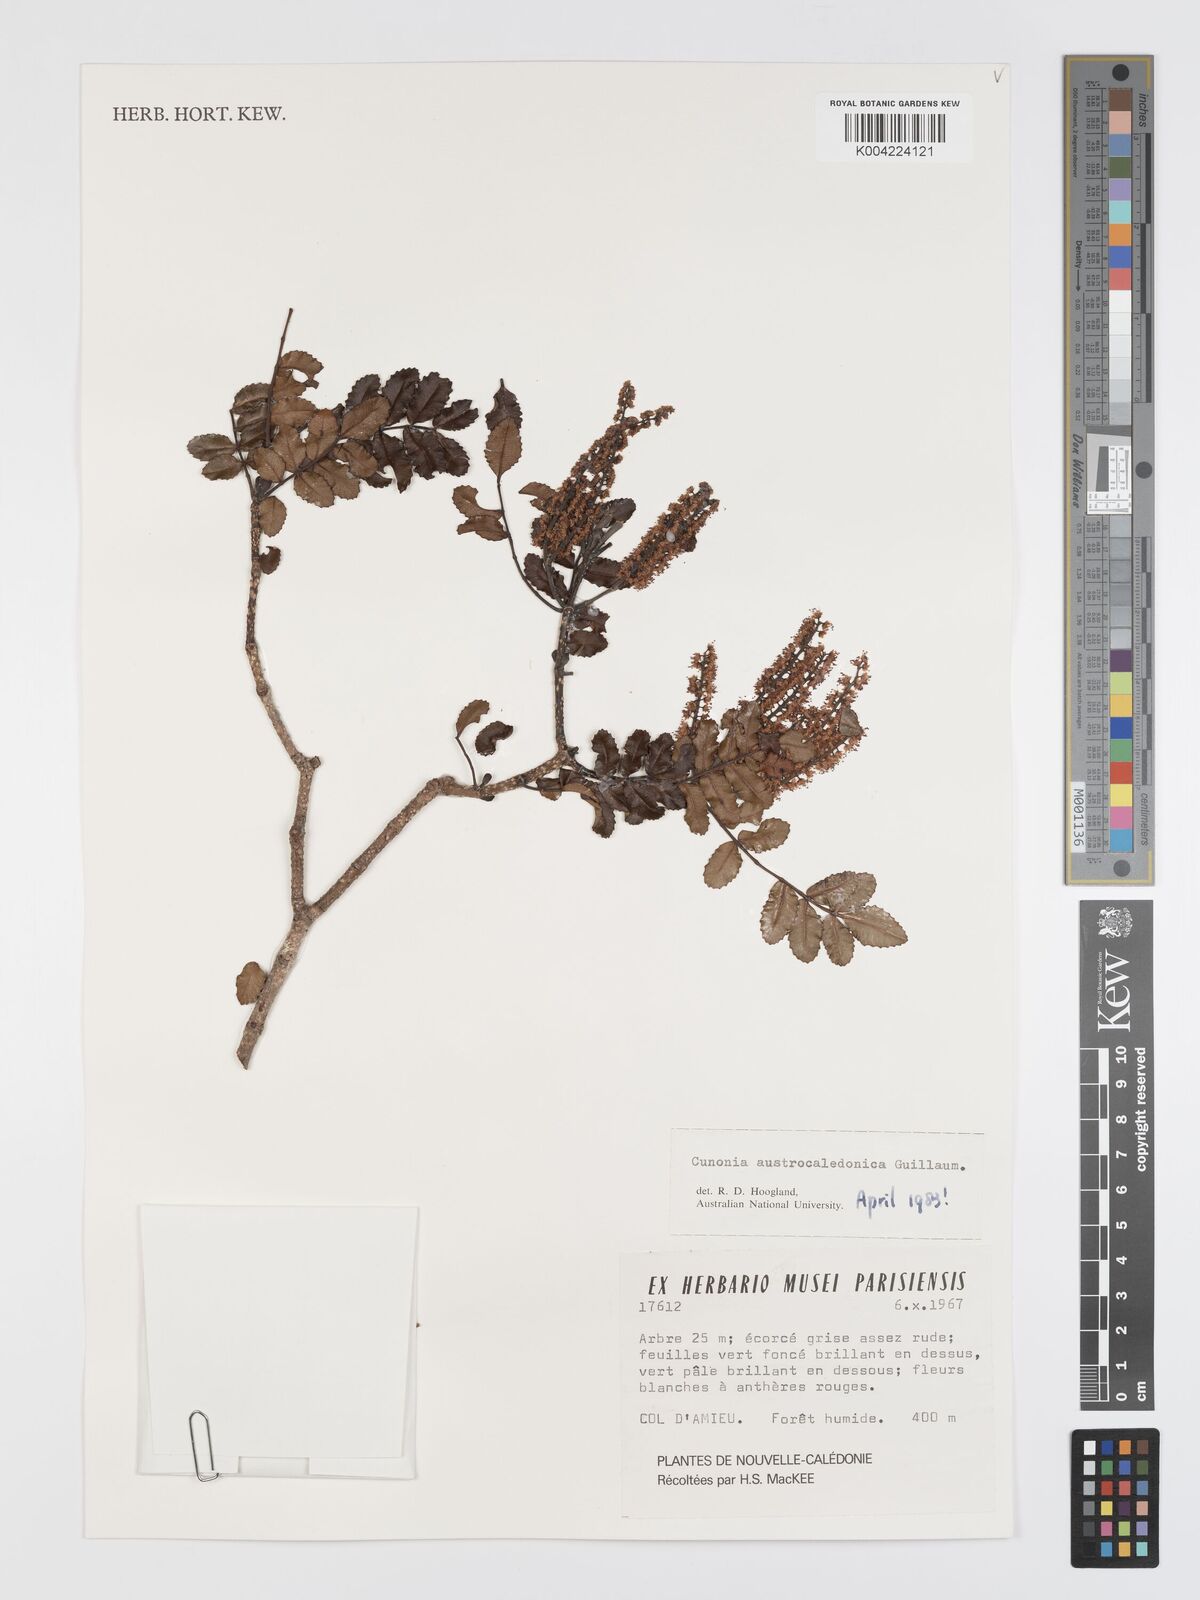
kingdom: Plantae
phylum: Tracheophyta
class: Magnoliopsida
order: Oxalidales
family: Cunoniaceae
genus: Cunonia
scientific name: Cunonia austrocaledonica
